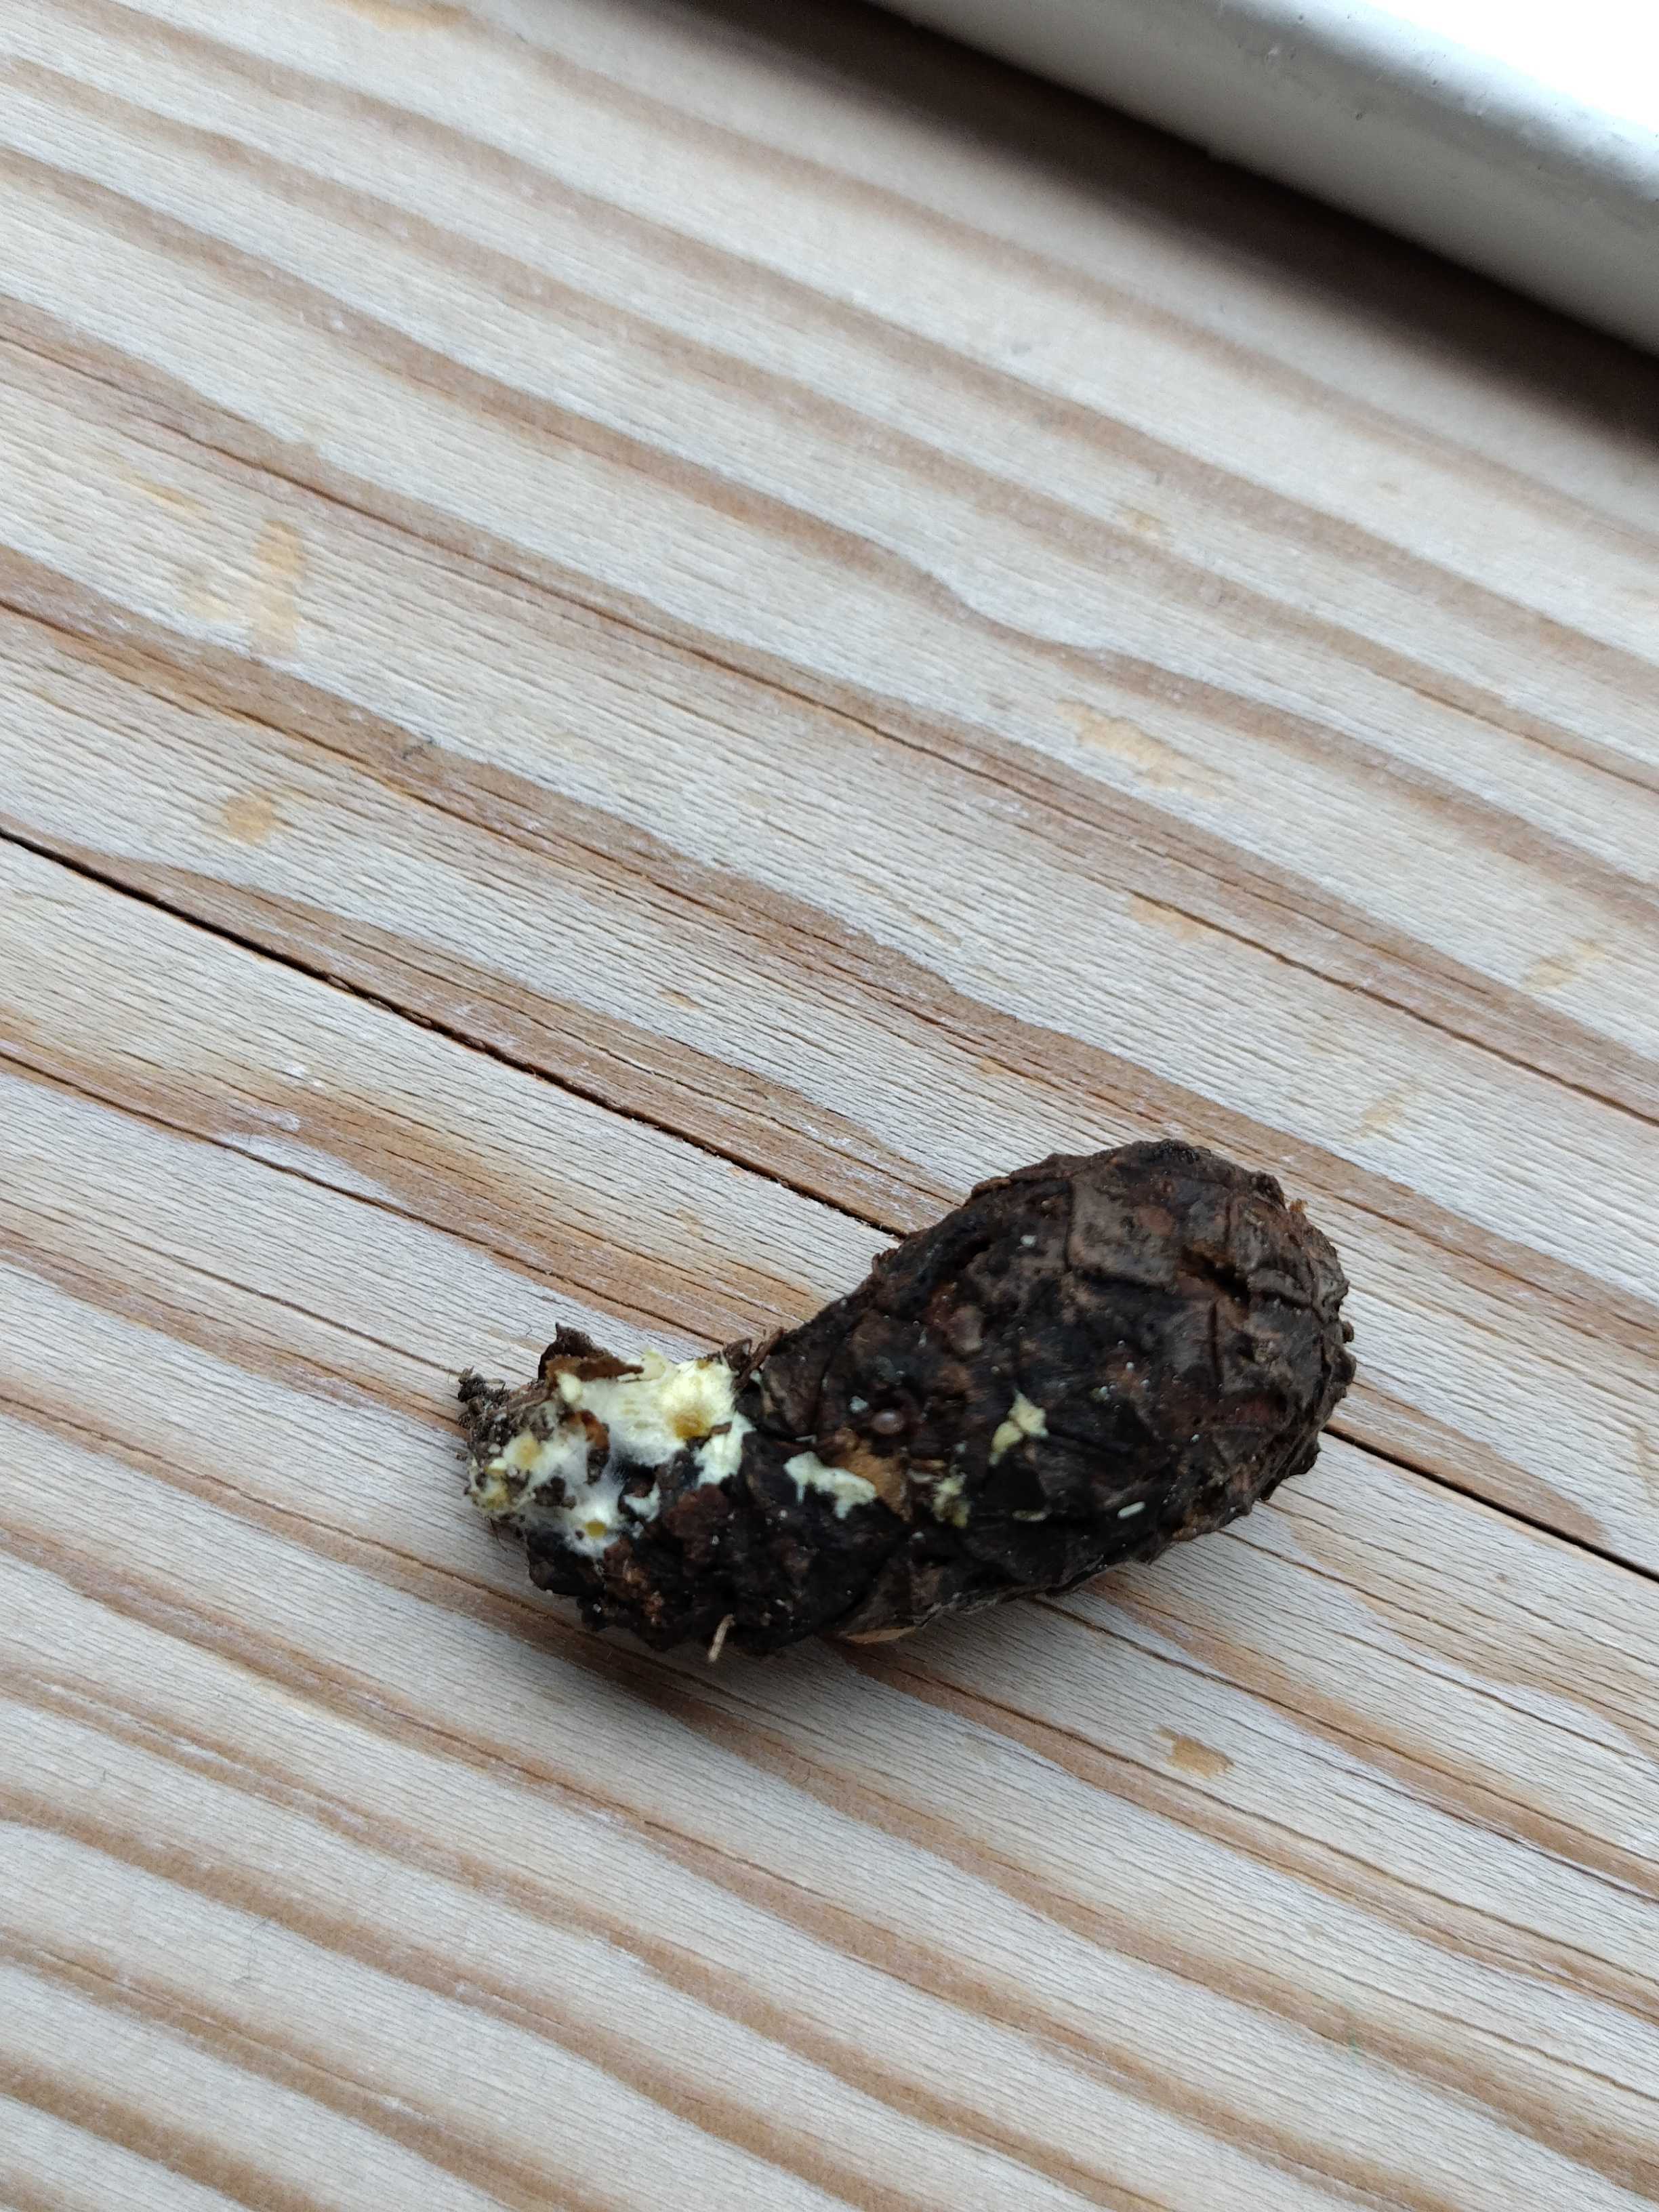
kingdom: Fungi
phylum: Basidiomycota
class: Agaricomycetes
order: Boletales
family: Boletaceae
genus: Xerocomellus
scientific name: Xerocomellus pruinatus
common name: dugget rørhat
